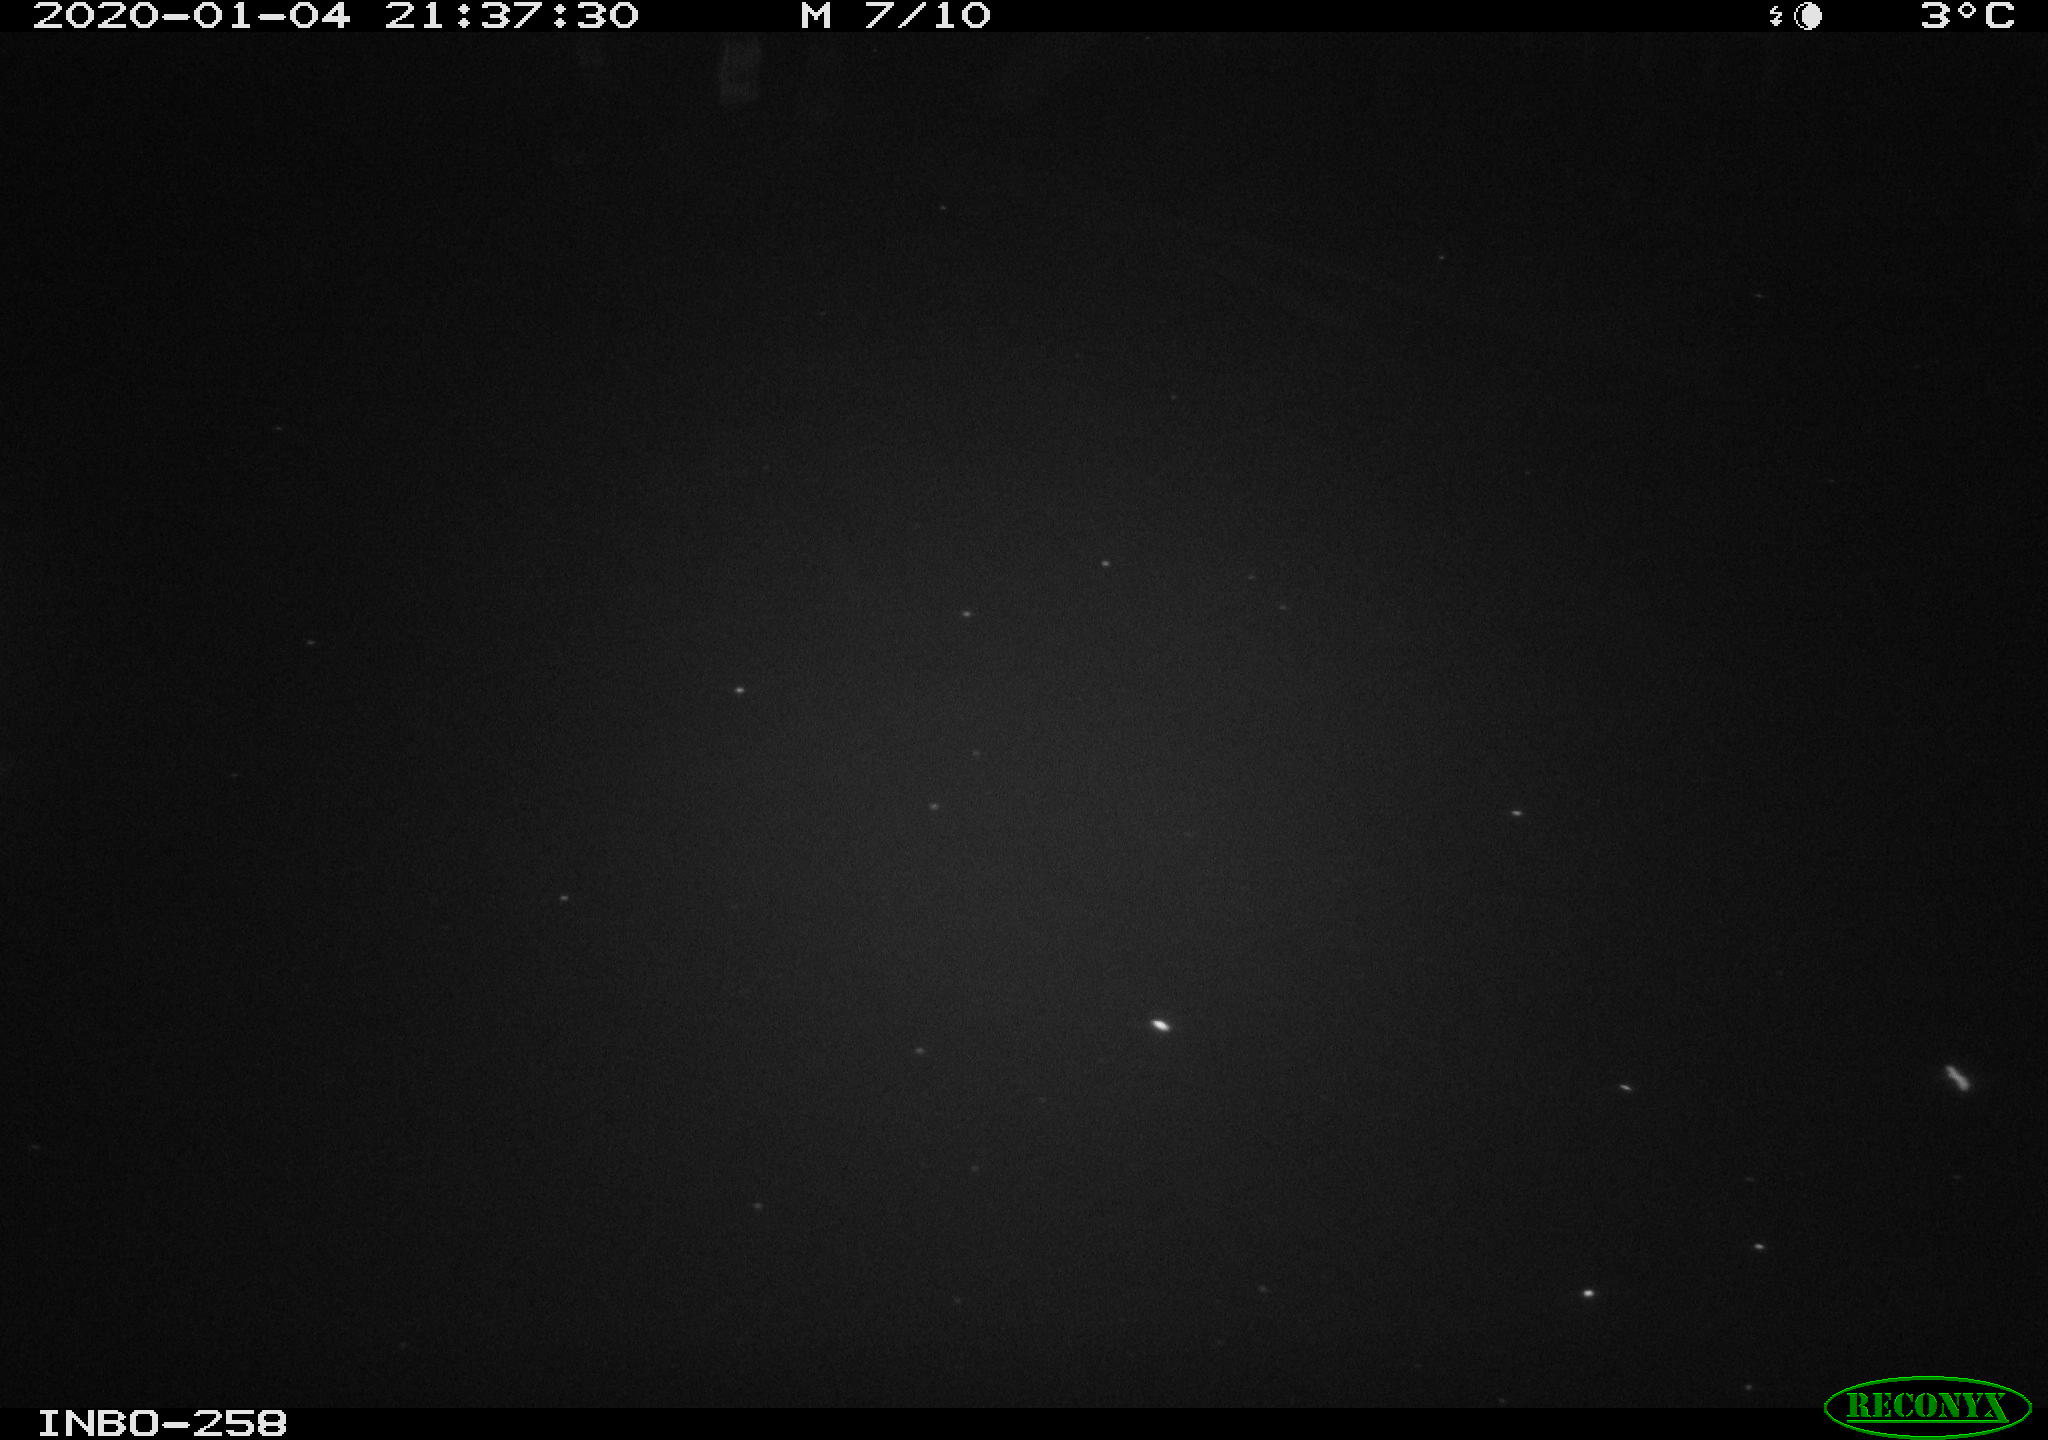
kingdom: Animalia
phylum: Chordata
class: Aves
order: Anseriformes
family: Anatidae
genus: Anas
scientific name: Anas platyrhynchos
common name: Mallard
